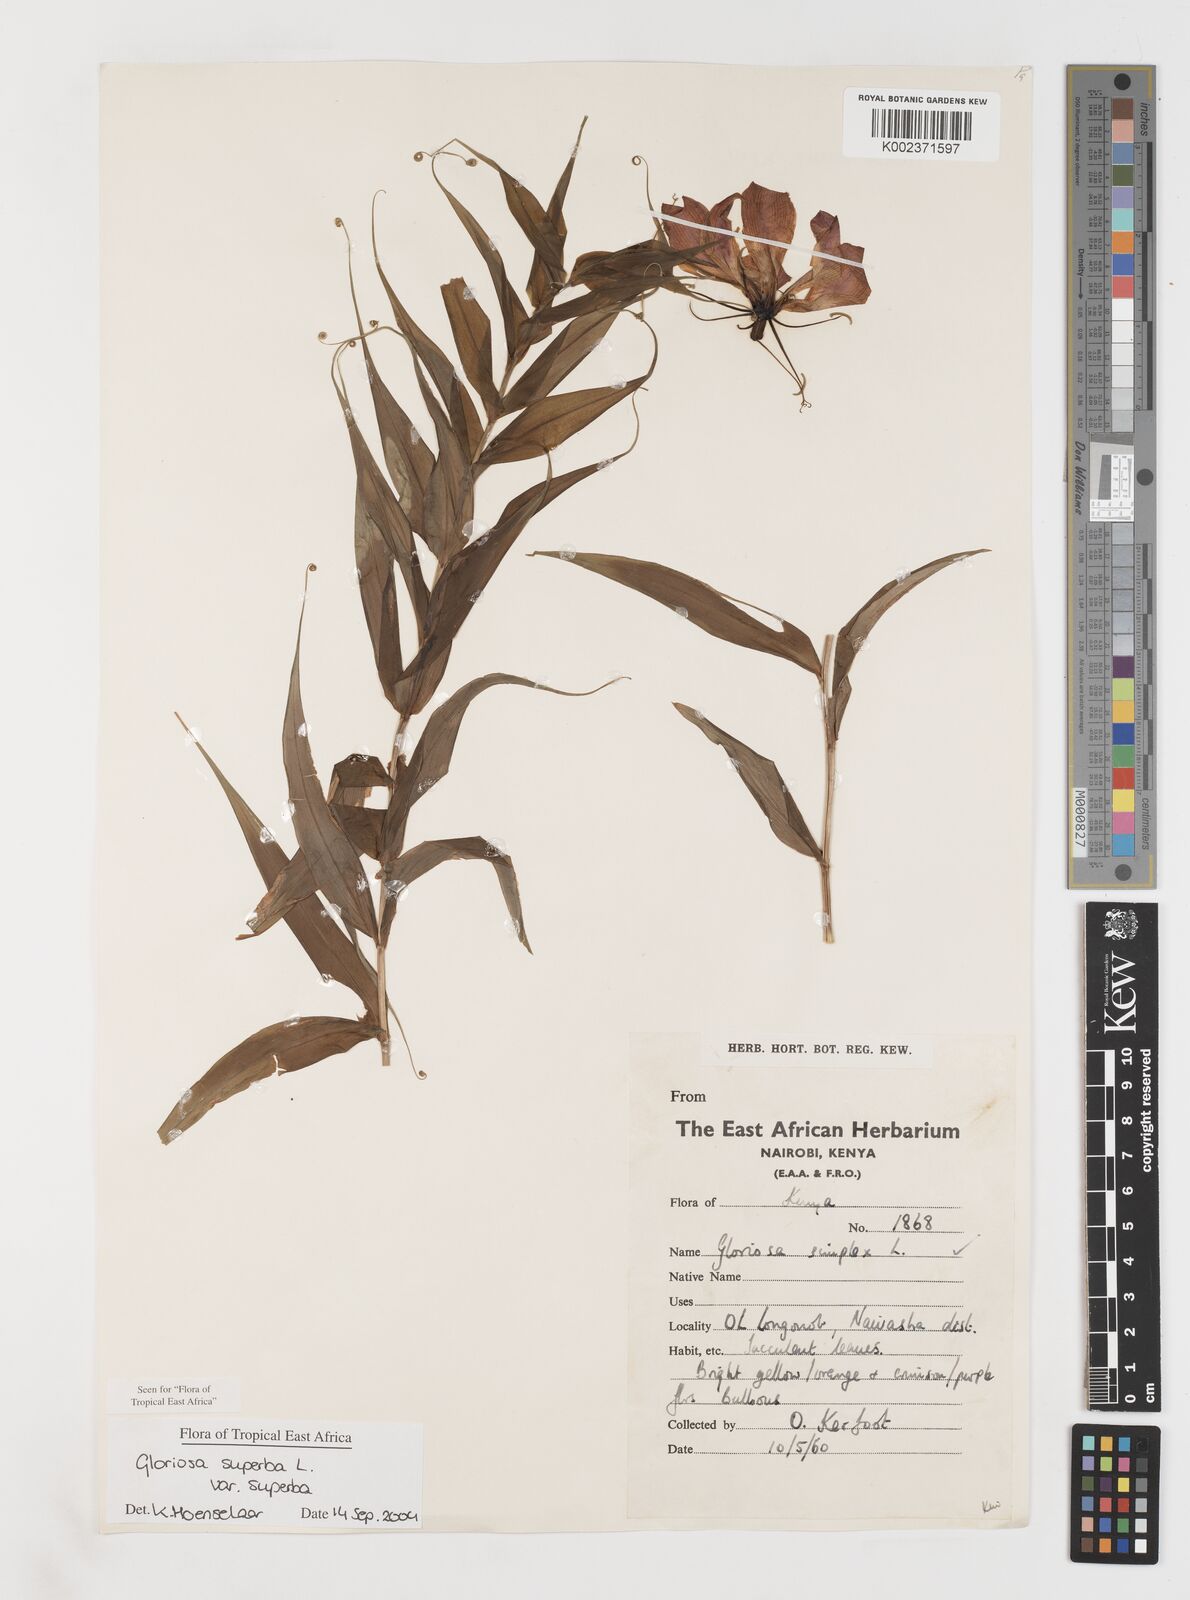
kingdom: Plantae
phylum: Tracheophyta
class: Liliopsida
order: Liliales
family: Colchicaceae
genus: Gloriosa
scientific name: Gloriosa simplex
